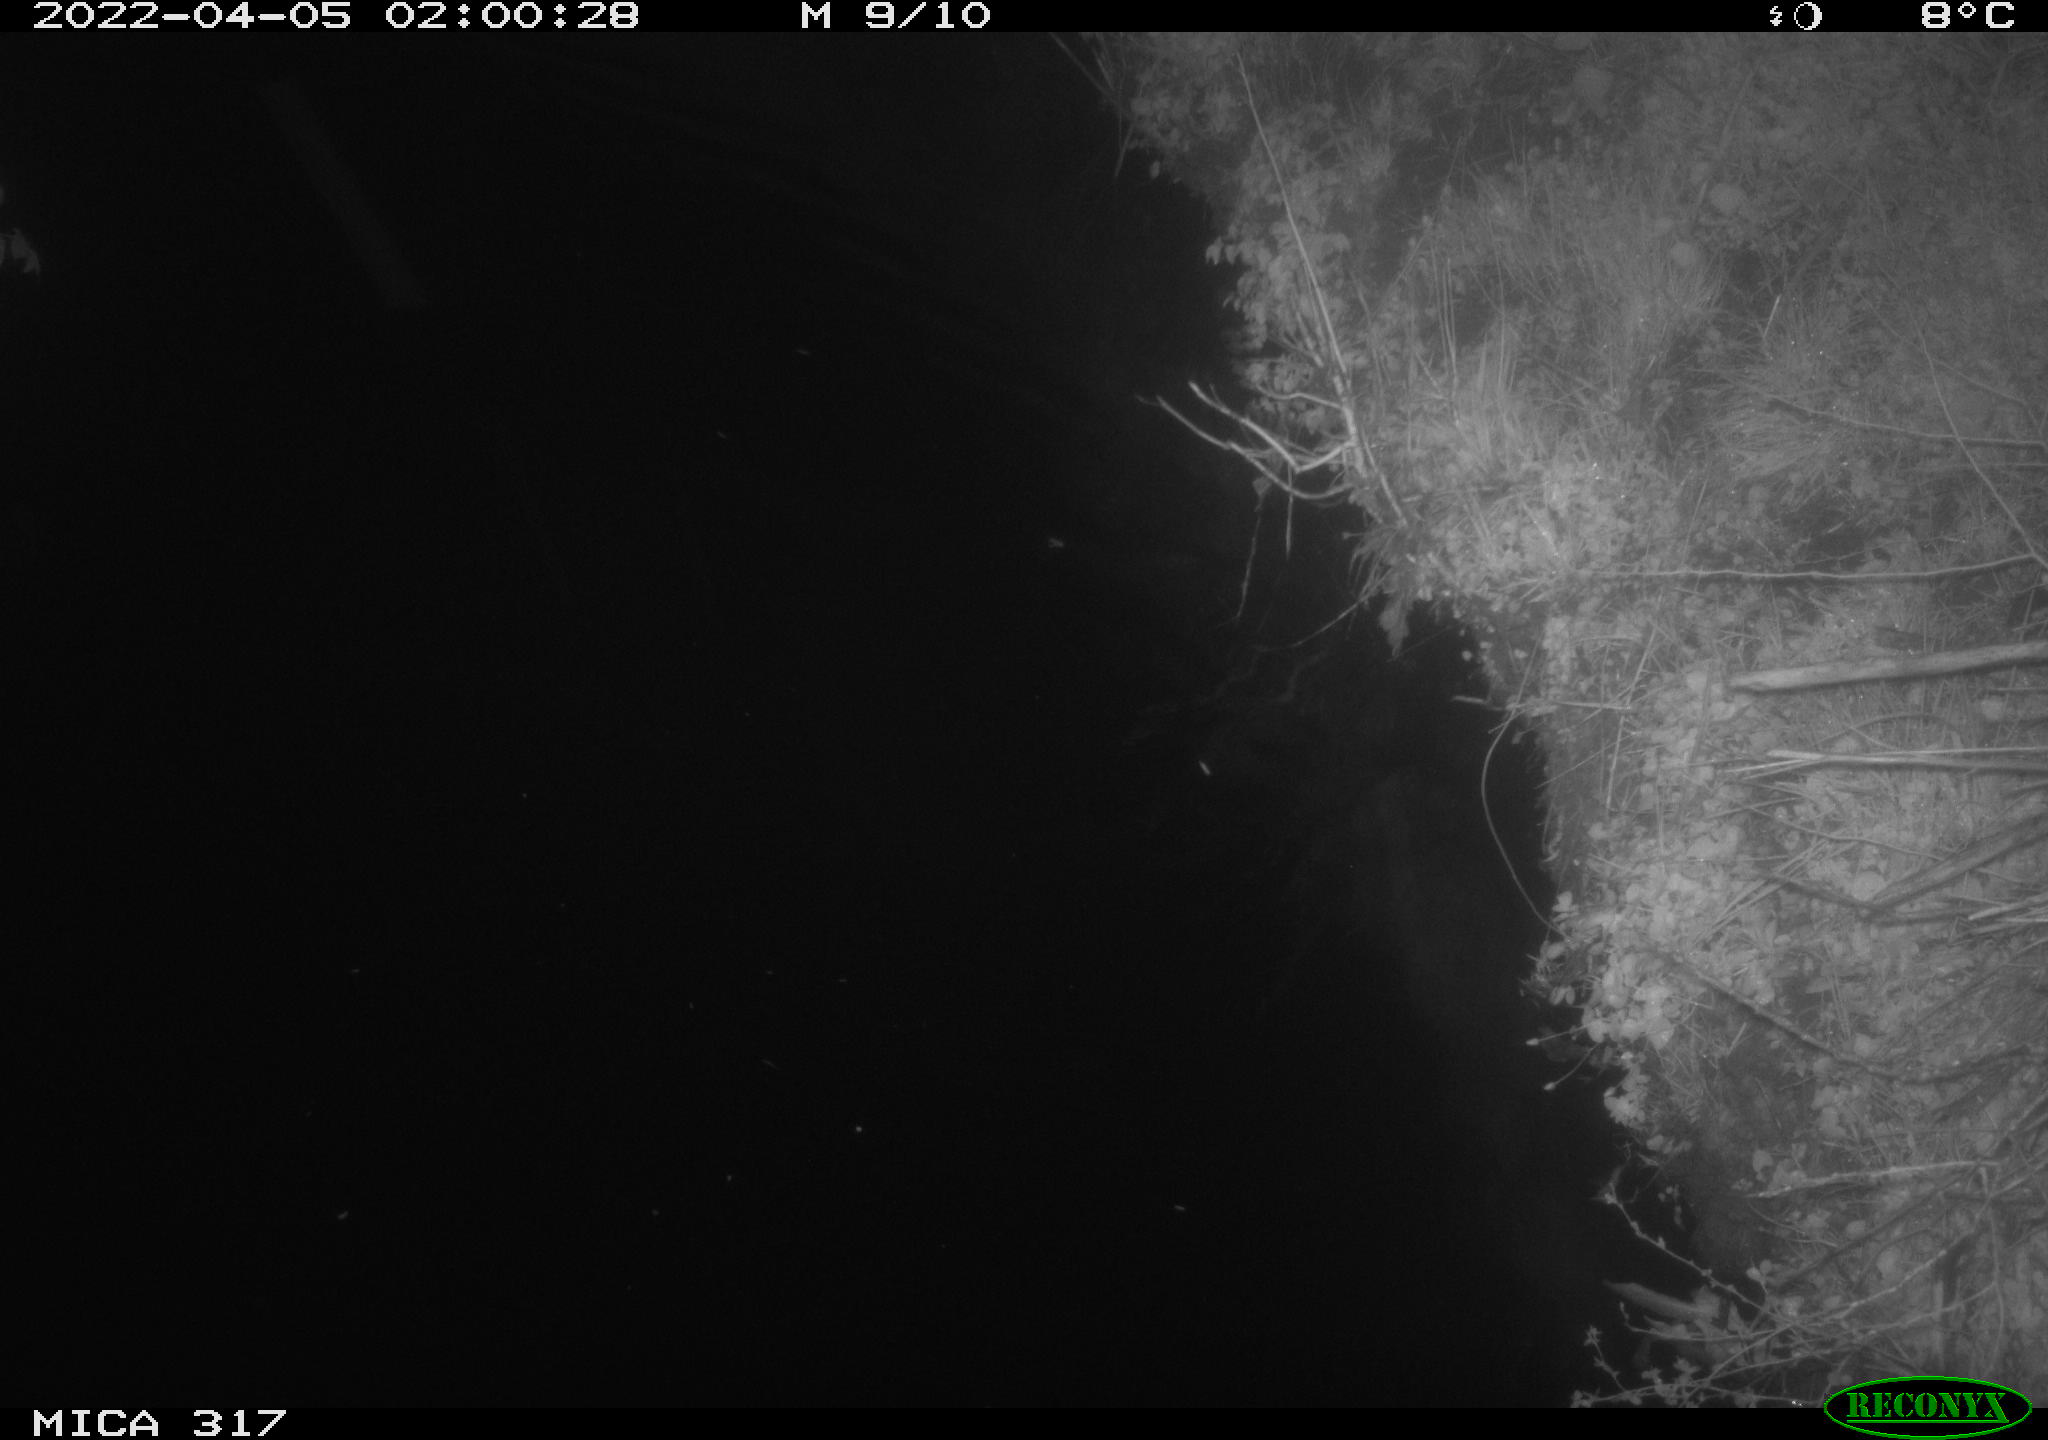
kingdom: Animalia
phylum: Chordata
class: Aves
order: Anseriformes
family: Anatidae
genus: Anas
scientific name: Anas platyrhynchos
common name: Mallard
